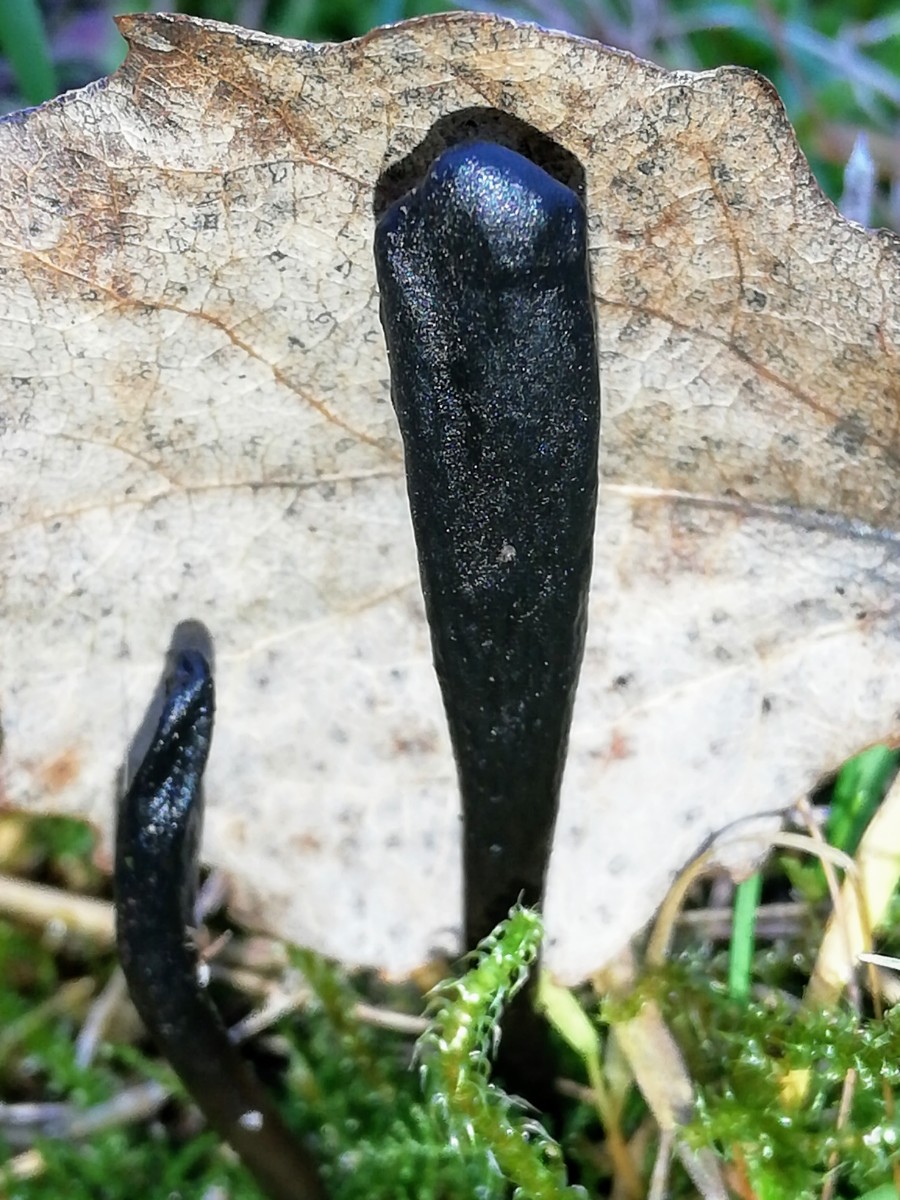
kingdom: Fungi
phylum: Ascomycota
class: Geoglossomycetes
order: Geoglossales
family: Geoglossaceae
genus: Glutinoglossum
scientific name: Glutinoglossum glutinosum
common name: slimet jordtunge
